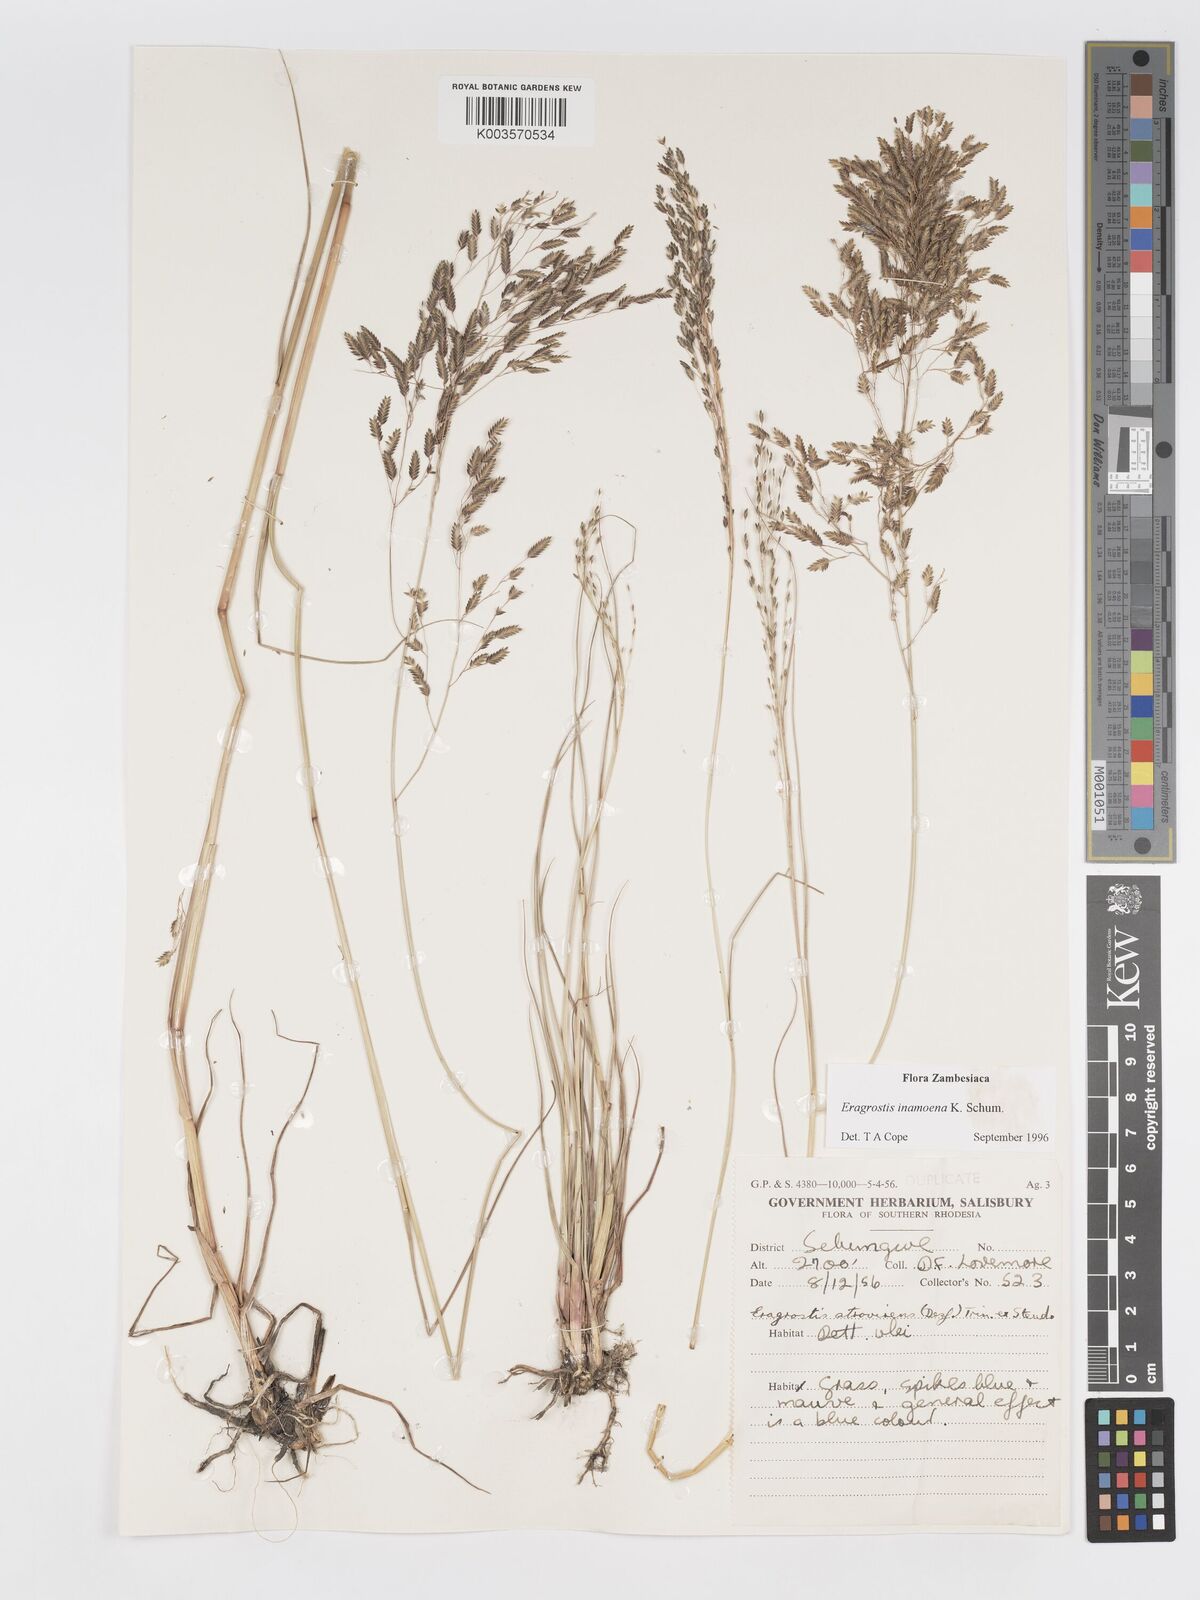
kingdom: Plantae
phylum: Tracheophyta
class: Liliopsida
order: Poales
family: Poaceae
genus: Eragrostis
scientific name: Eragrostis inamoena
